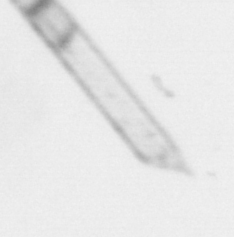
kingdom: Chromista
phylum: Ochrophyta
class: Bacillariophyceae
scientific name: Bacillariophyceae
